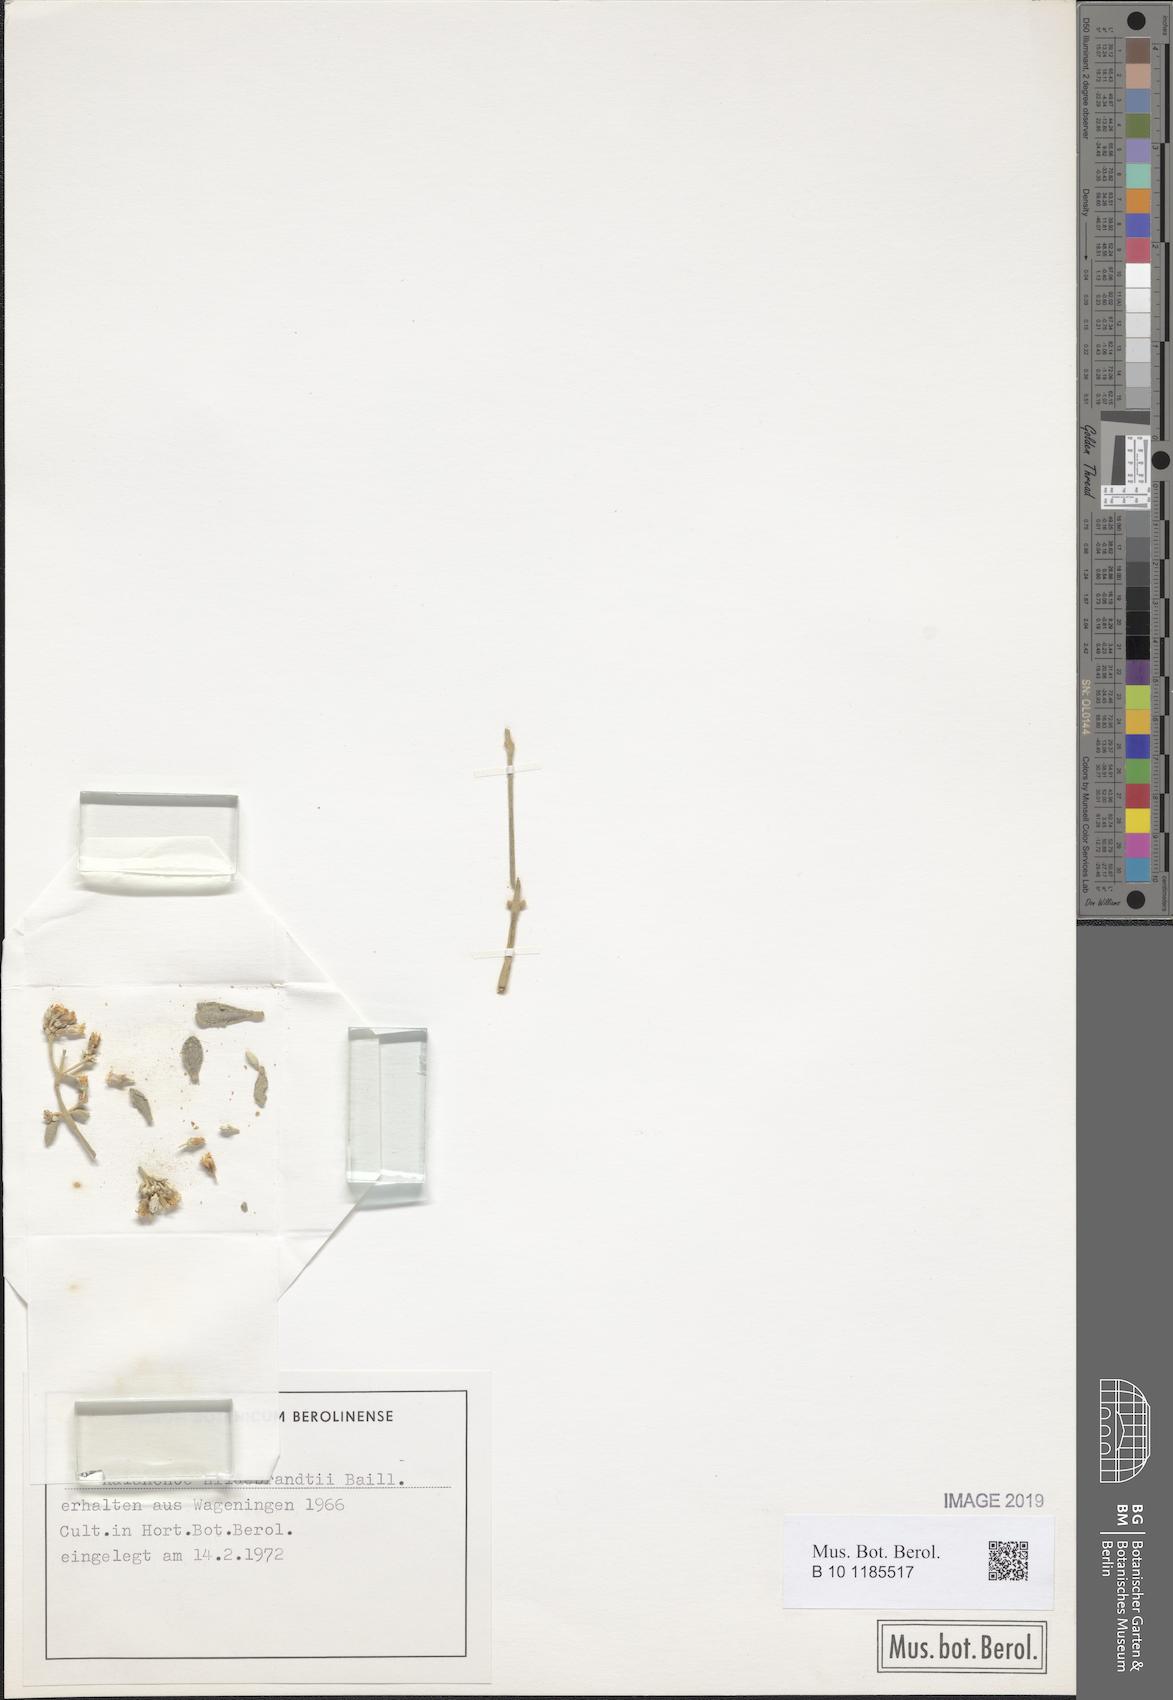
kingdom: Plantae
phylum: Tracheophyta
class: Magnoliopsida
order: Saxifragales
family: Crassulaceae
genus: Kalanchoe
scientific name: Kalanchoe hildebrandtii
